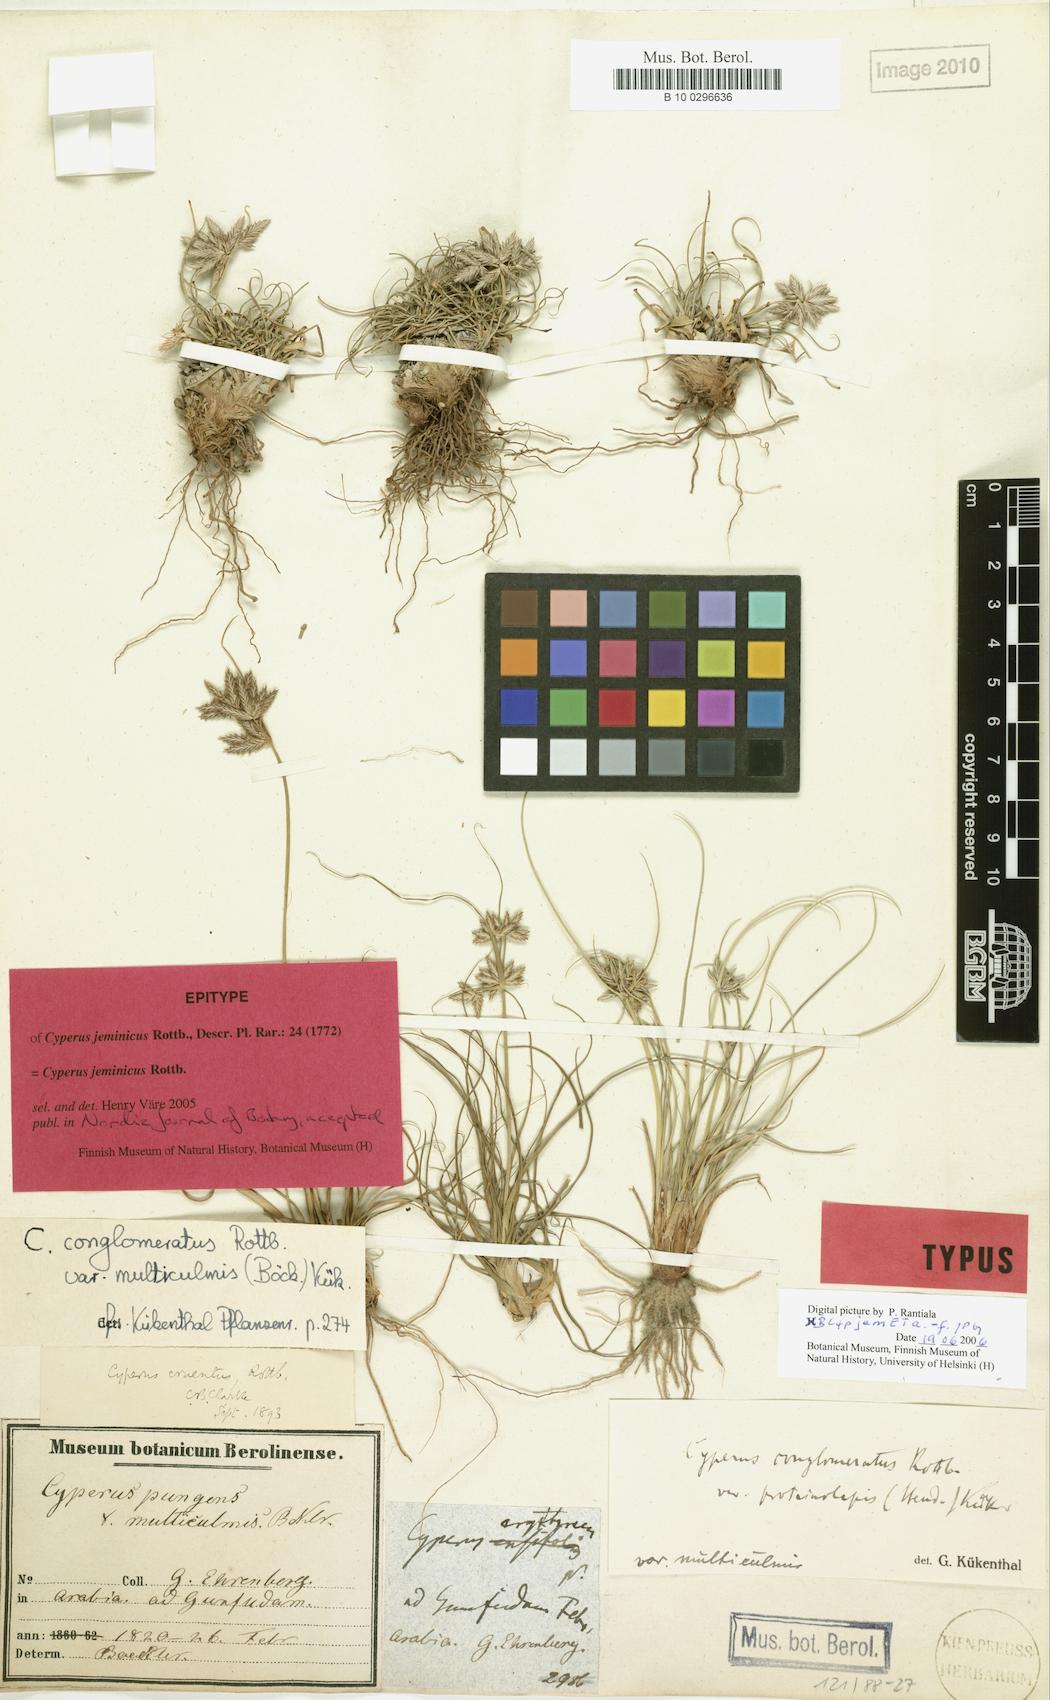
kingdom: Plantae
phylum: Tracheophyta
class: Liliopsida
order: Poales
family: Cyperaceae
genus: Cyperus
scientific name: Cyperus jeminicus
